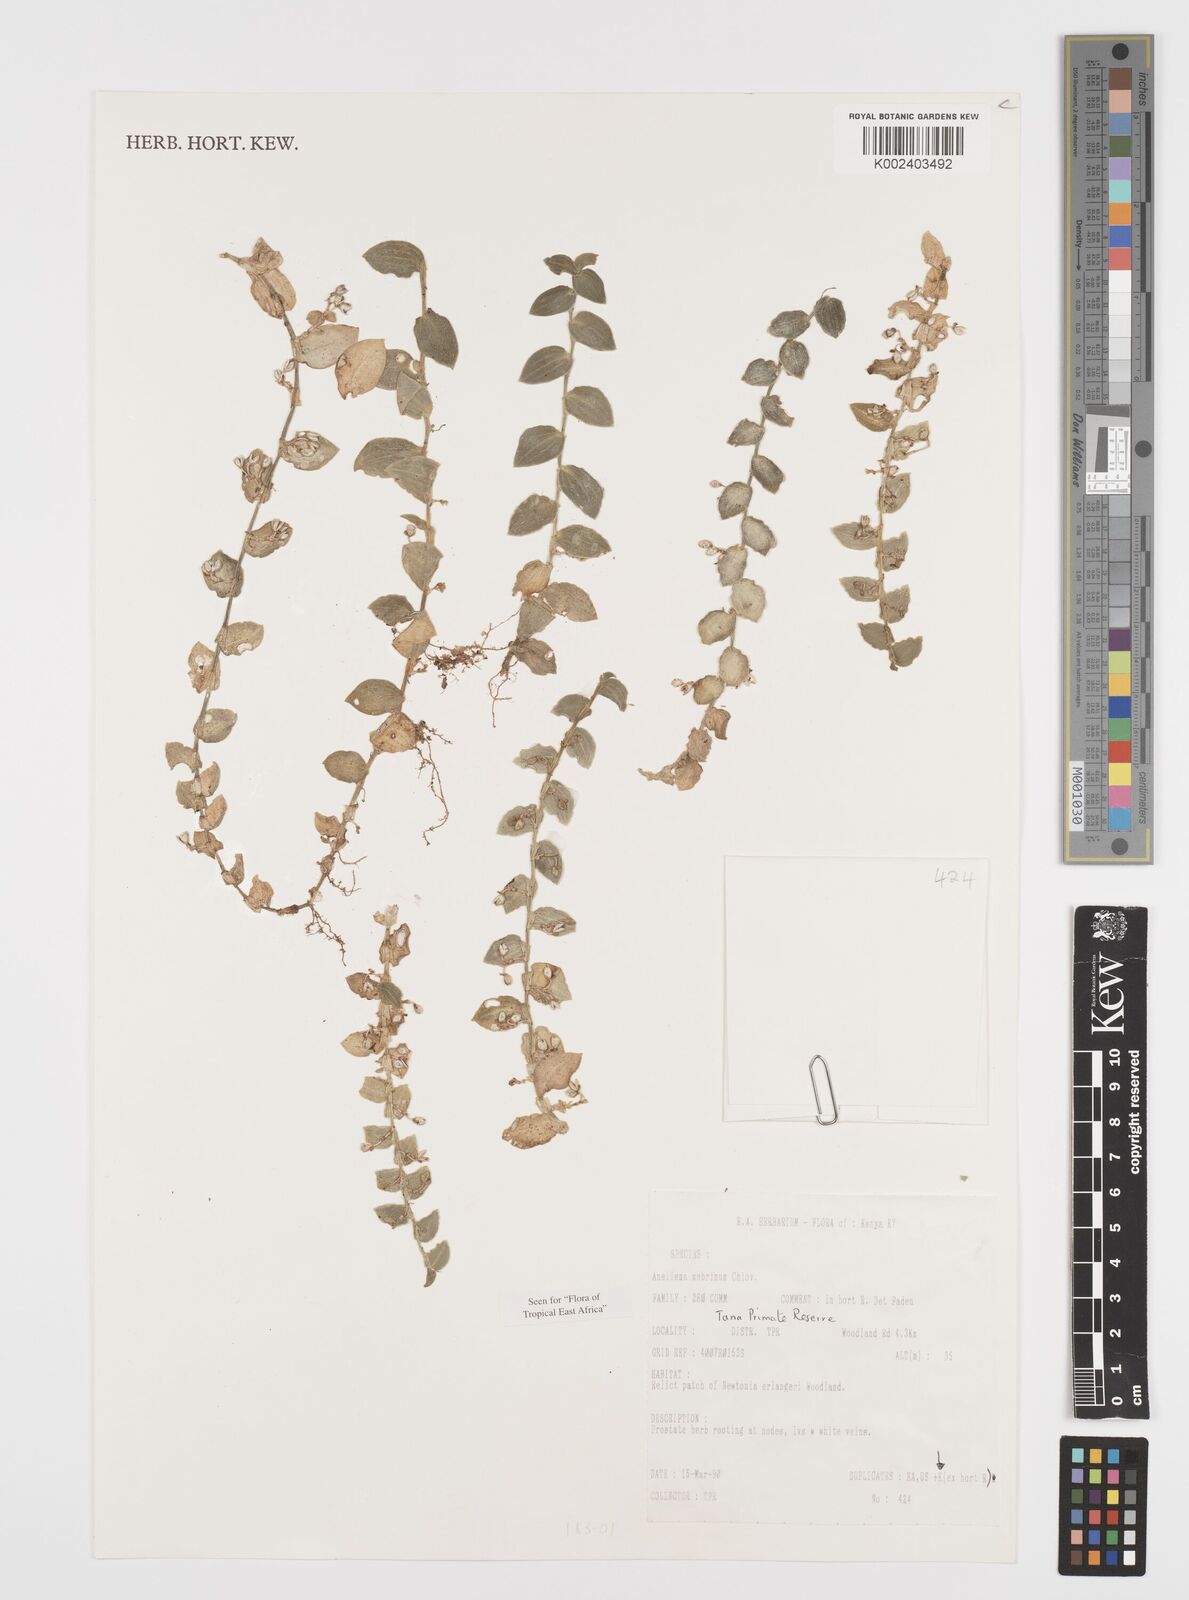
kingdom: Plantae
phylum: Tracheophyta
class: Liliopsida
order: Commelinales
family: Commelinaceae
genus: Aneilema
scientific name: Aneilema zebrinum
